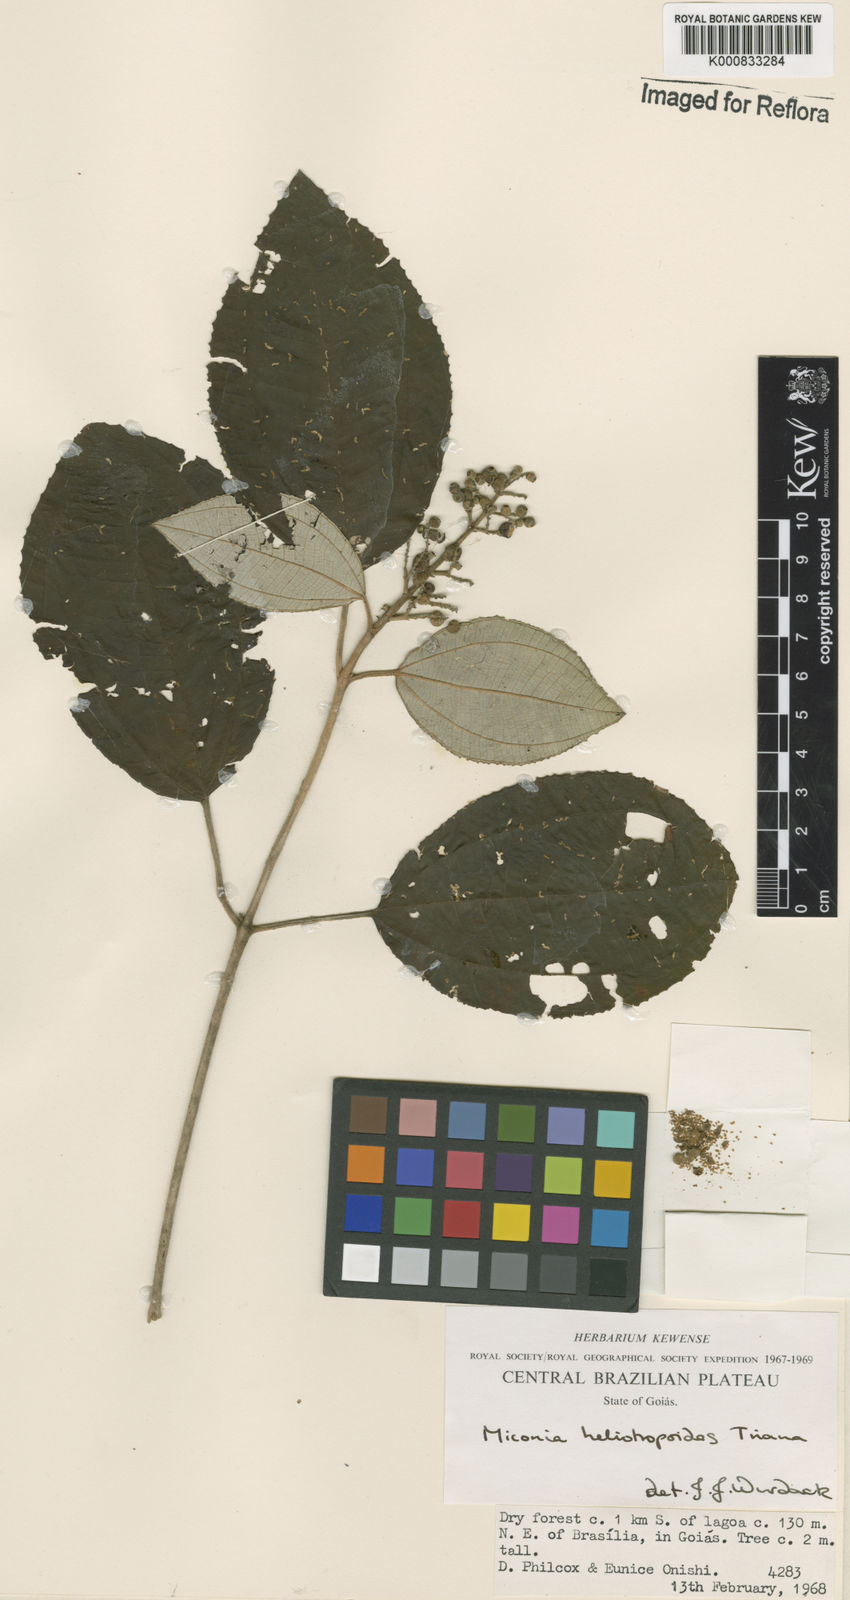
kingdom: Plantae
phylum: Tracheophyta
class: Magnoliopsida
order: Myrtales
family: Melastomataceae
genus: Miconia
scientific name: Miconia heliotropoides
